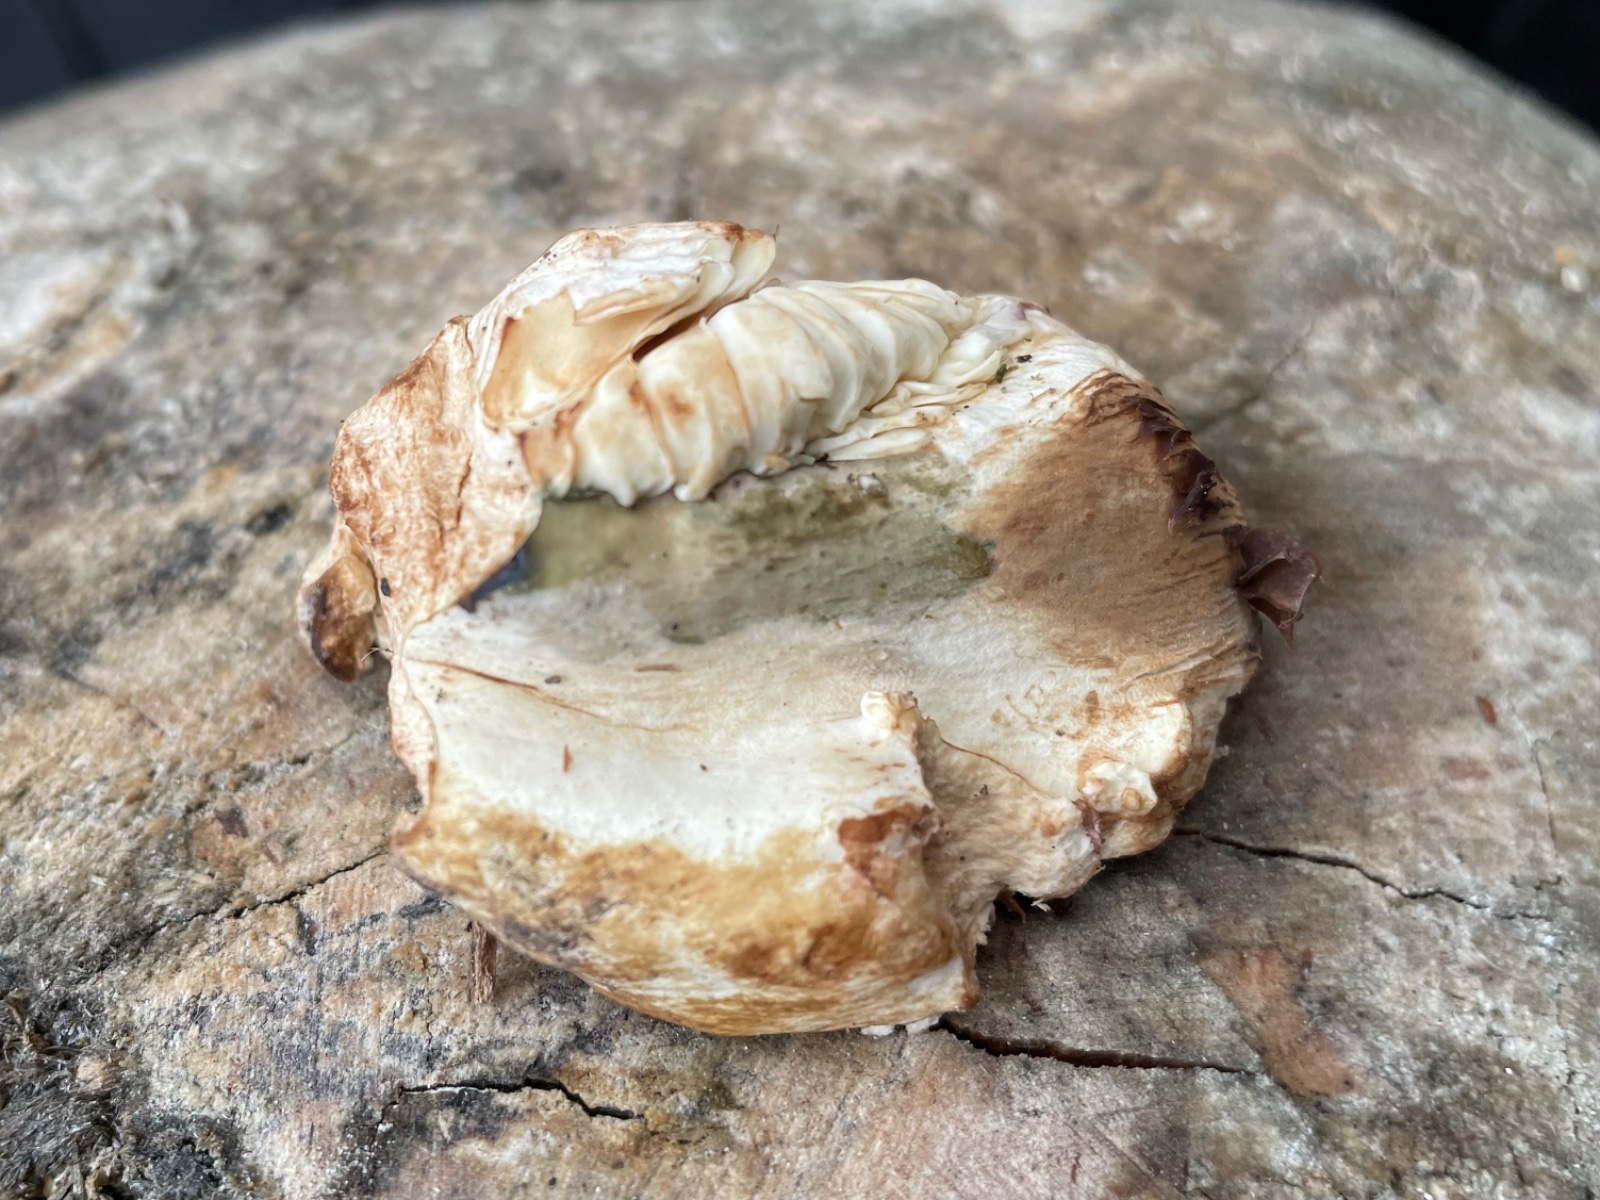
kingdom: Fungi
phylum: Basidiomycota
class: Agaricomycetes
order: Russulales
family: Russulaceae
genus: Russula
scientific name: Russula
